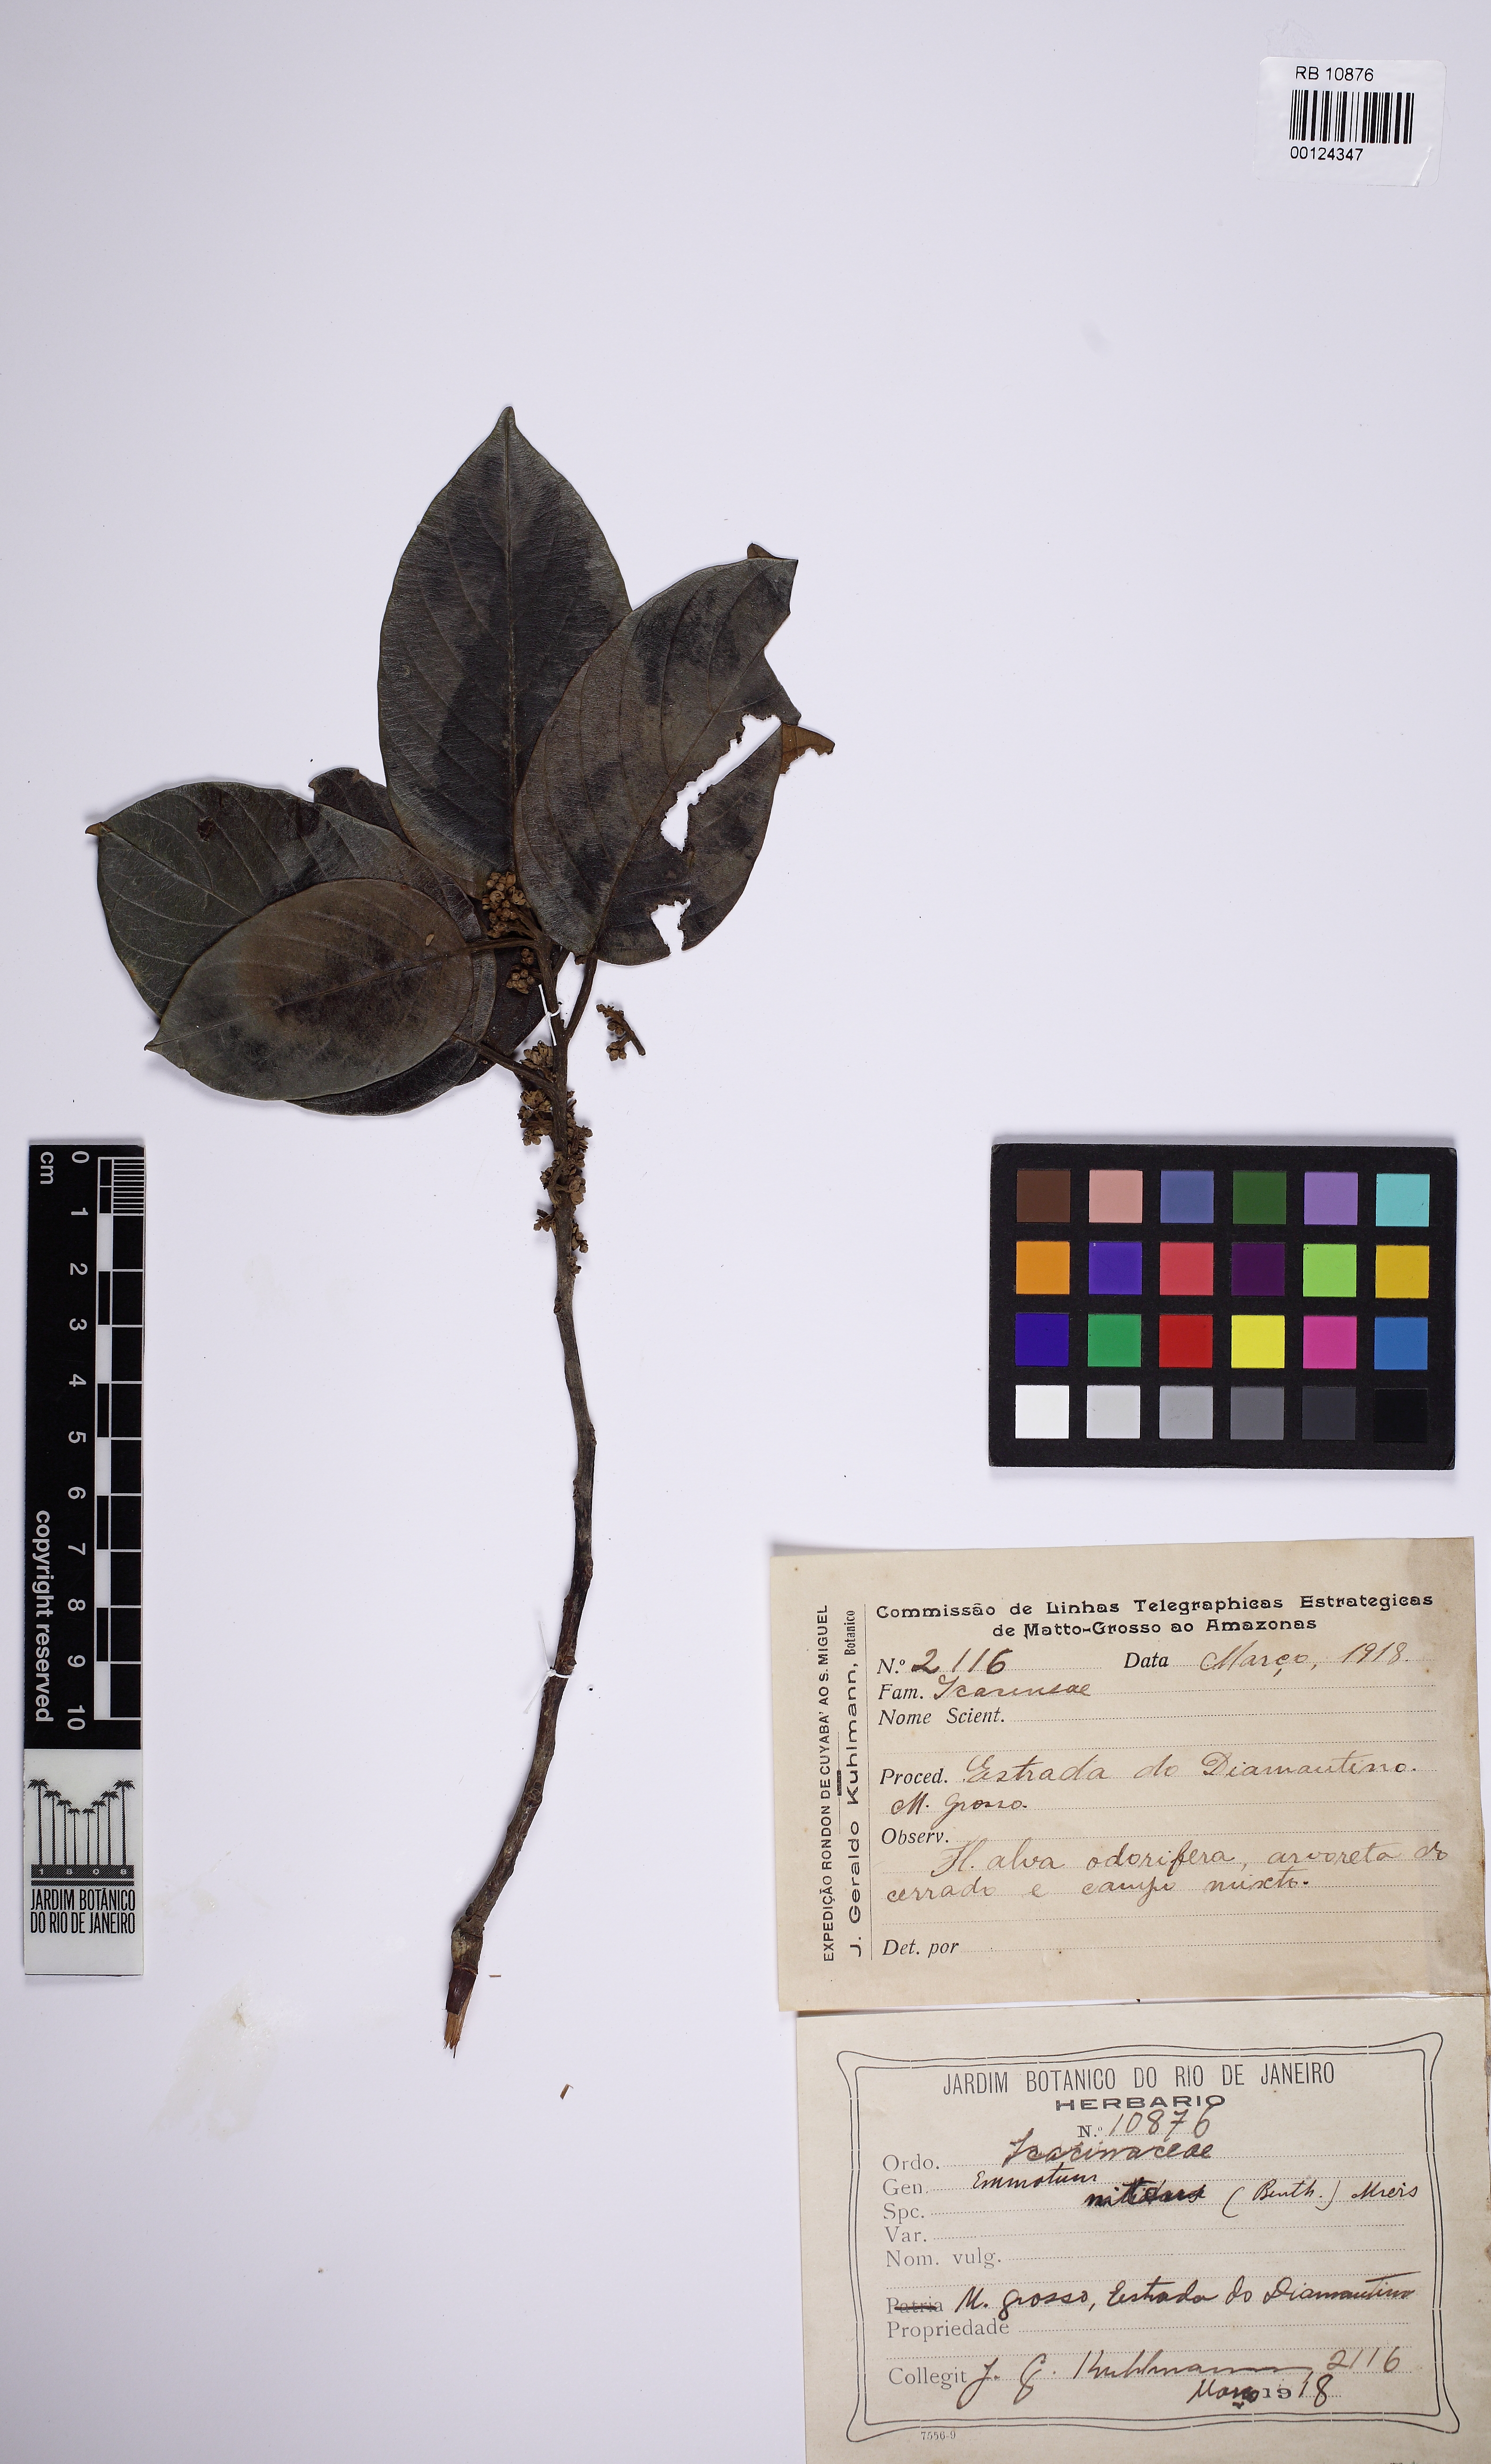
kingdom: Plantae
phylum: Tracheophyta
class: Magnoliopsida
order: Metteniusales
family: Metteniusaceae
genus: Emmotum
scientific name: Emmotum nitens
